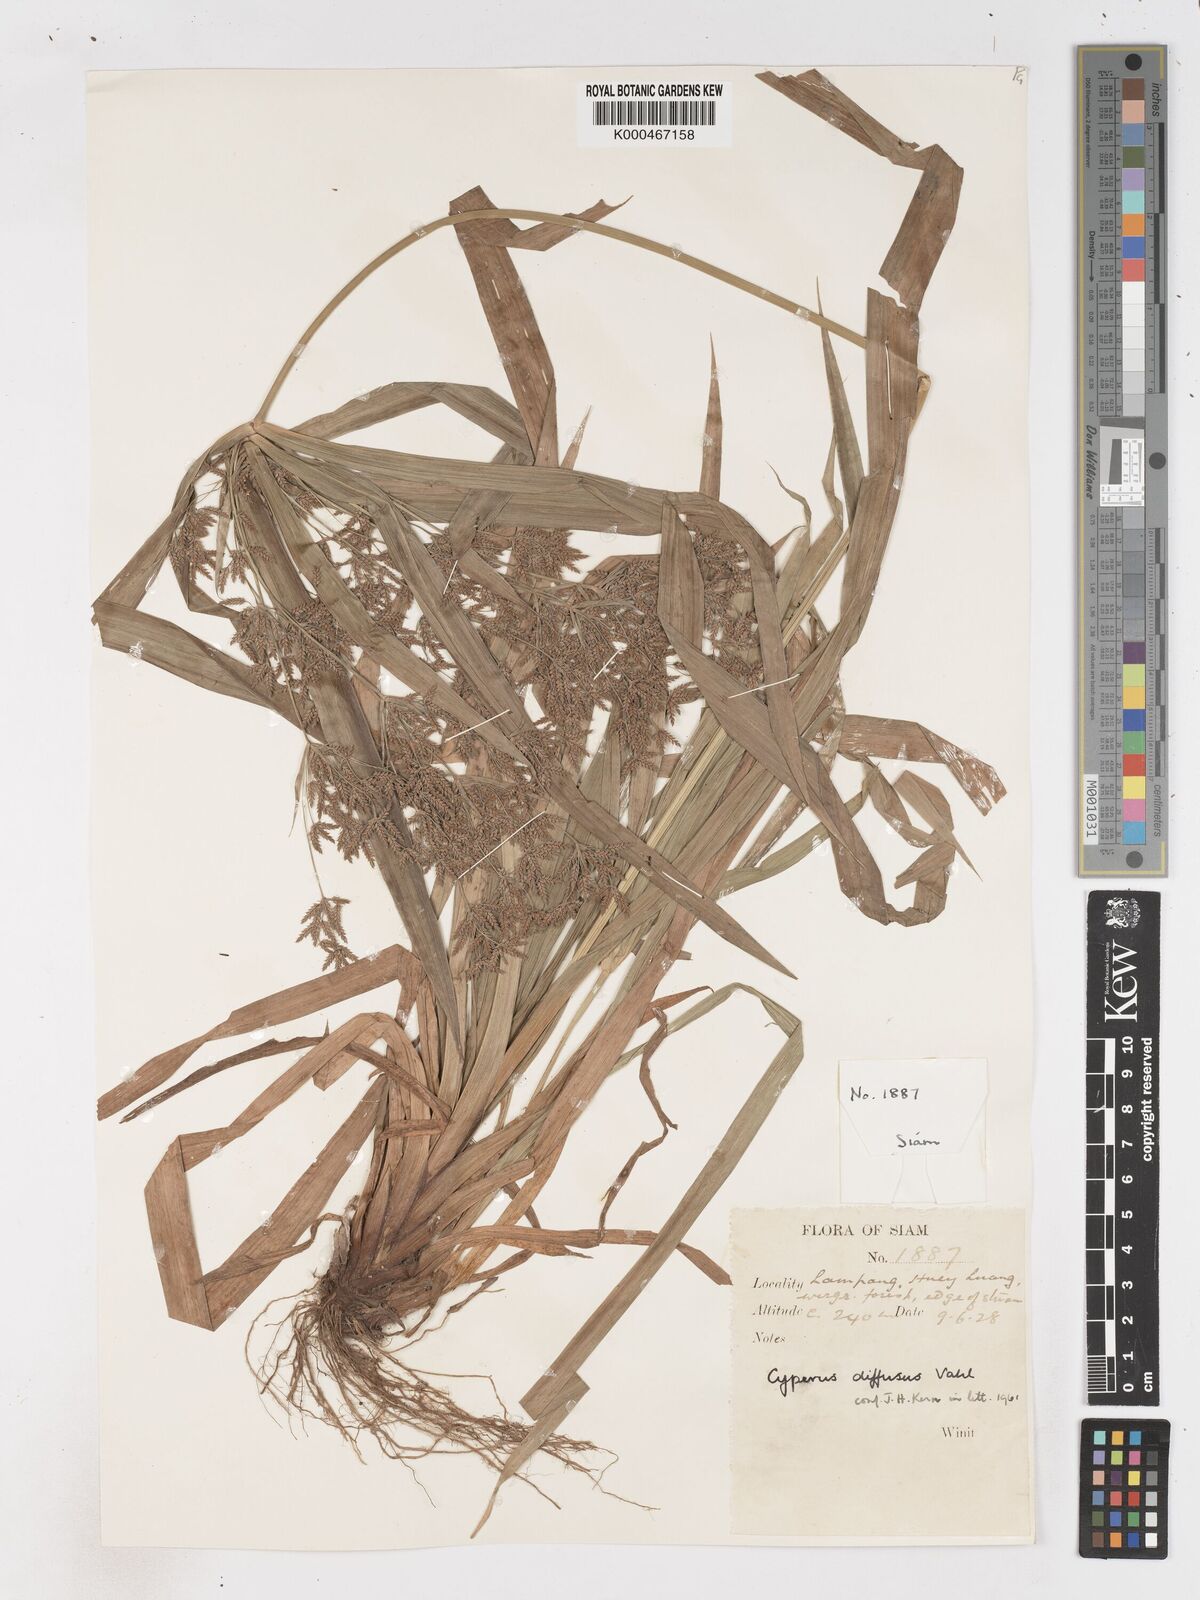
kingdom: Plantae
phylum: Tracheophyta
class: Liliopsida
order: Poales
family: Cyperaceae
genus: Cyperus
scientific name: Cyperus diffusus
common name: Dwarf umbrella grass
